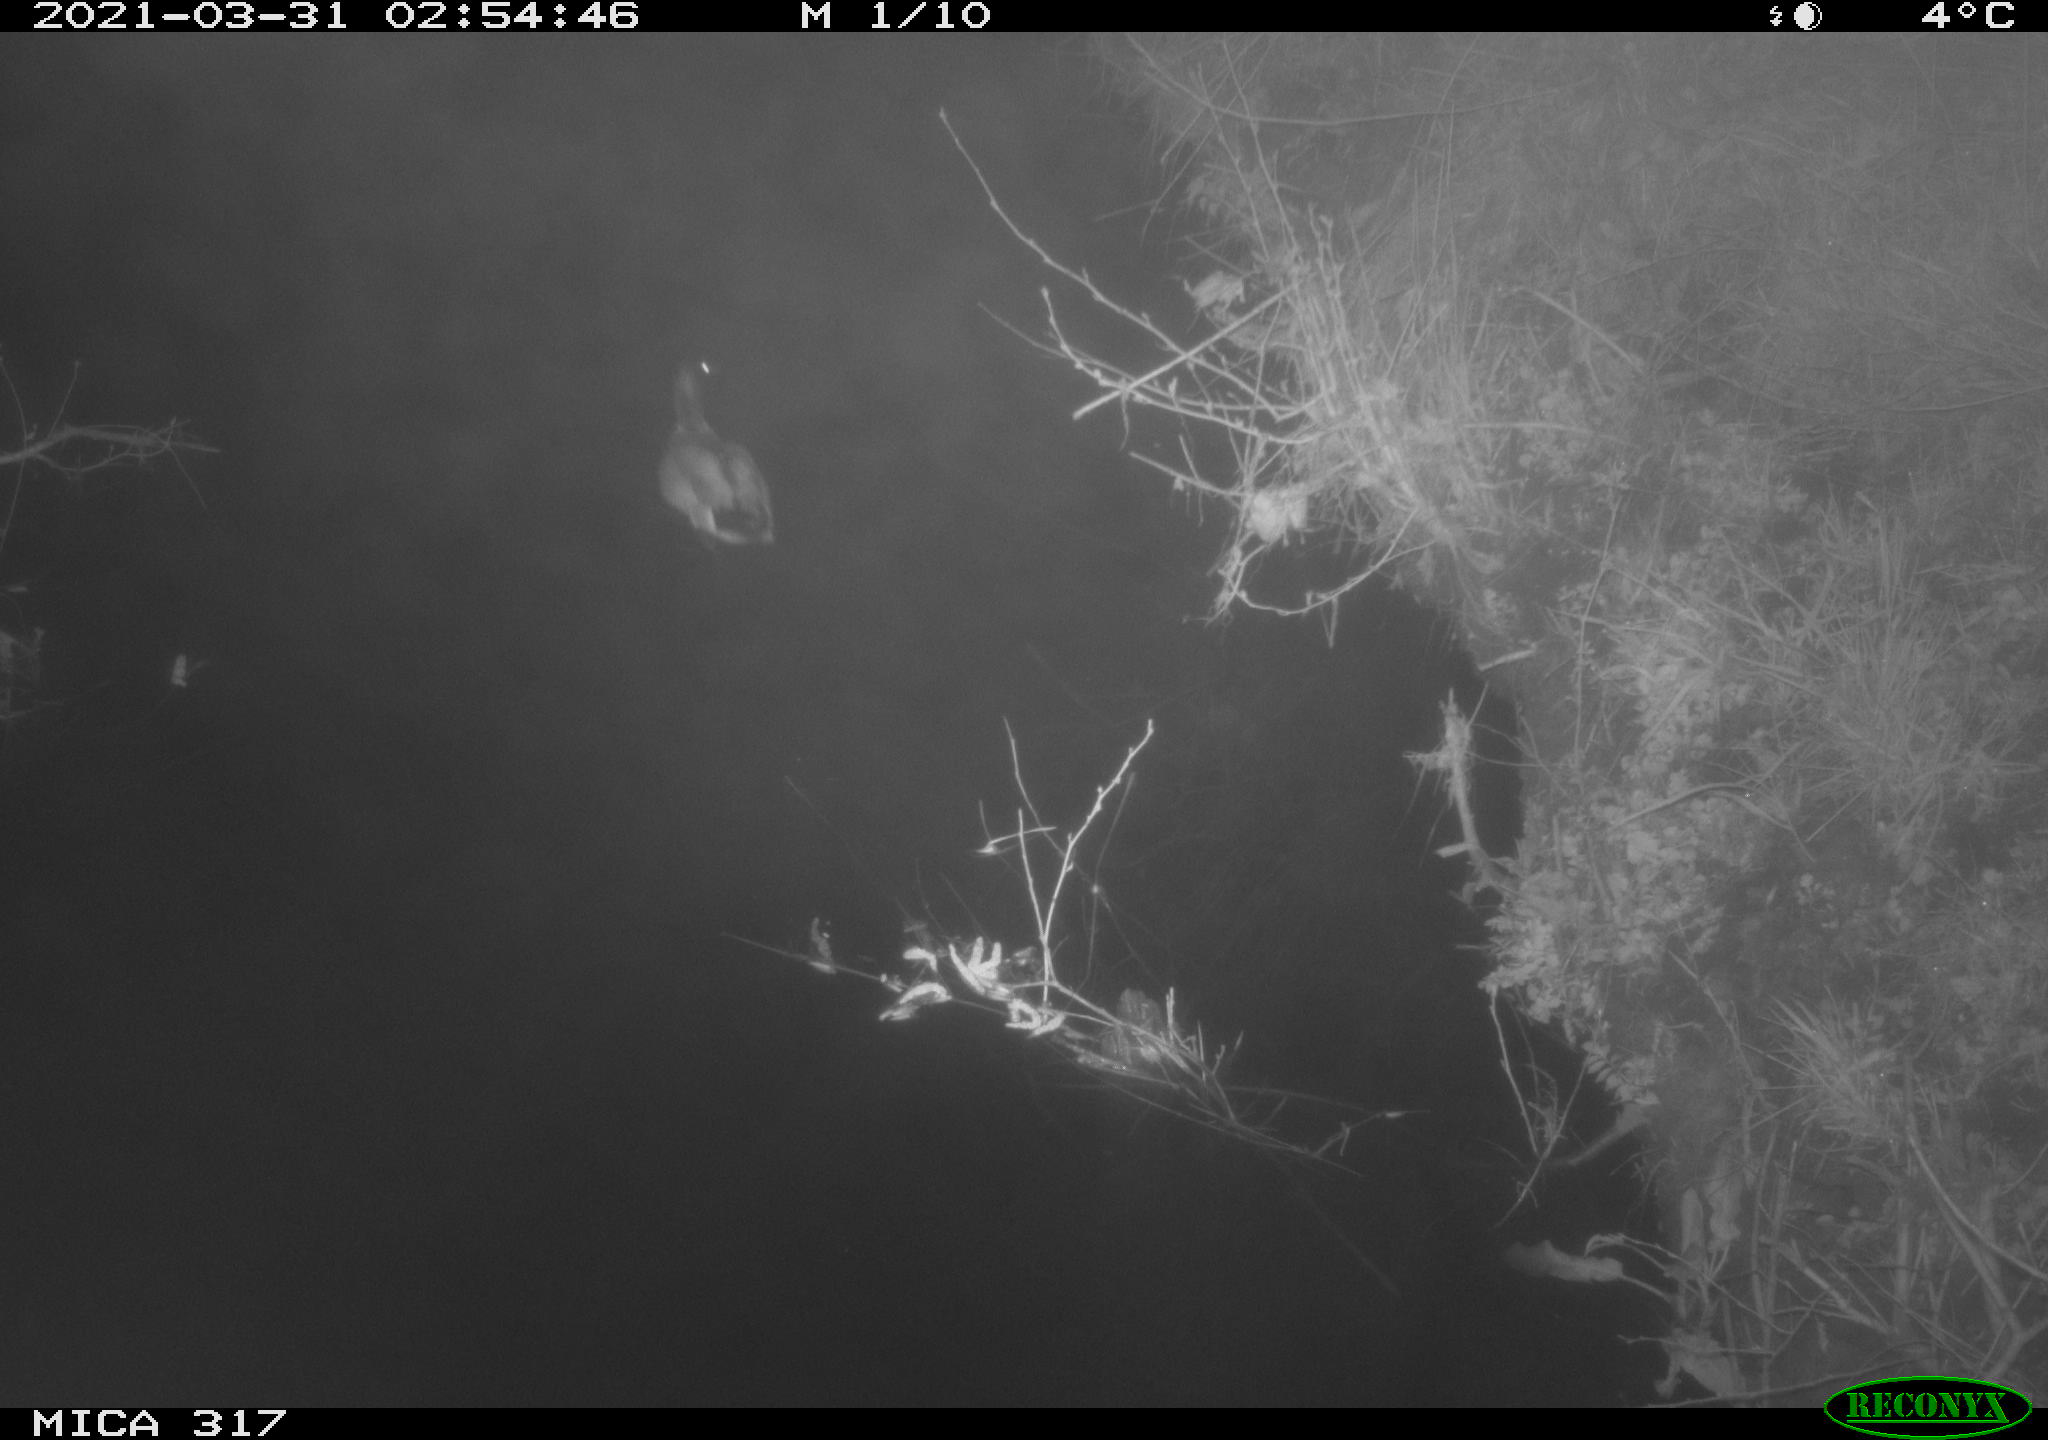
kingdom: Animalia
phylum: Chordata
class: Aves
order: Anseriformes
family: Anatidae
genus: Anas
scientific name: Anas platyrhynchos
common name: Mallard
